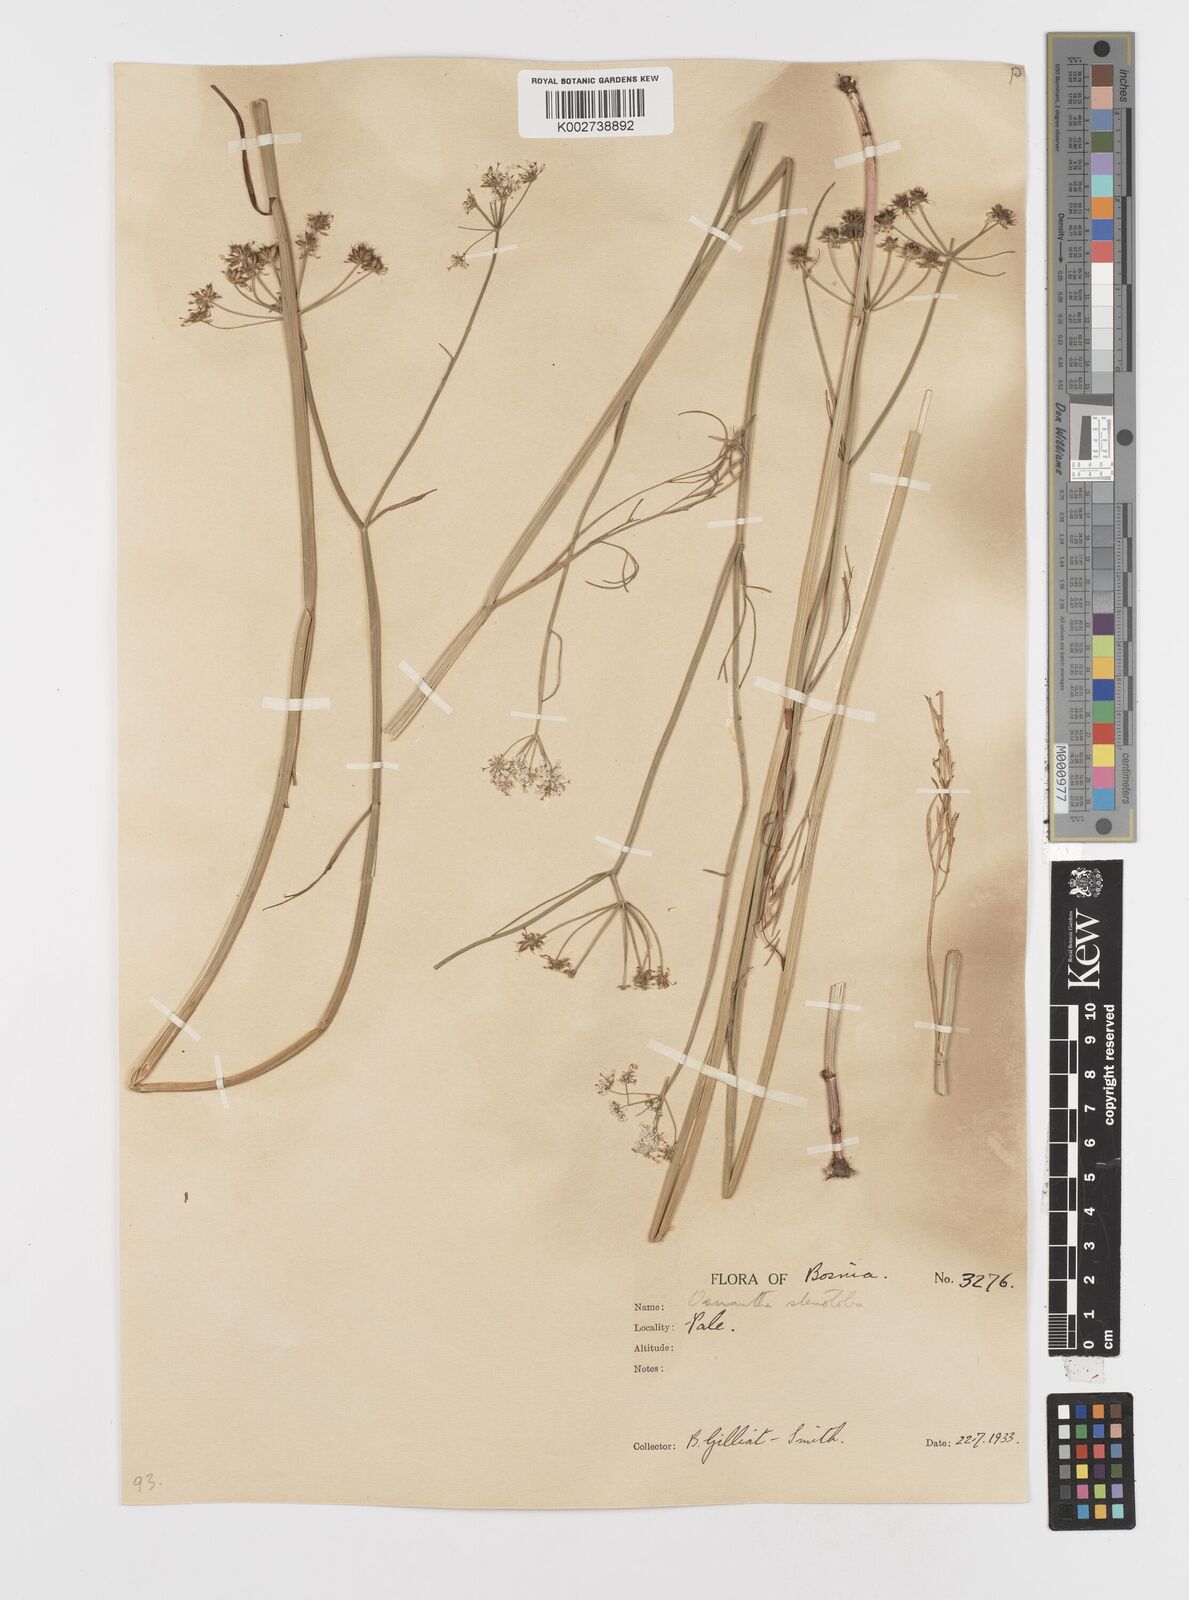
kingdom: Plantae
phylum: Tracheophyta
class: Magnoliopsida
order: Apiales
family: Apiaceae
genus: Oenanthe
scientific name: Oenanthe peucedanifolia
